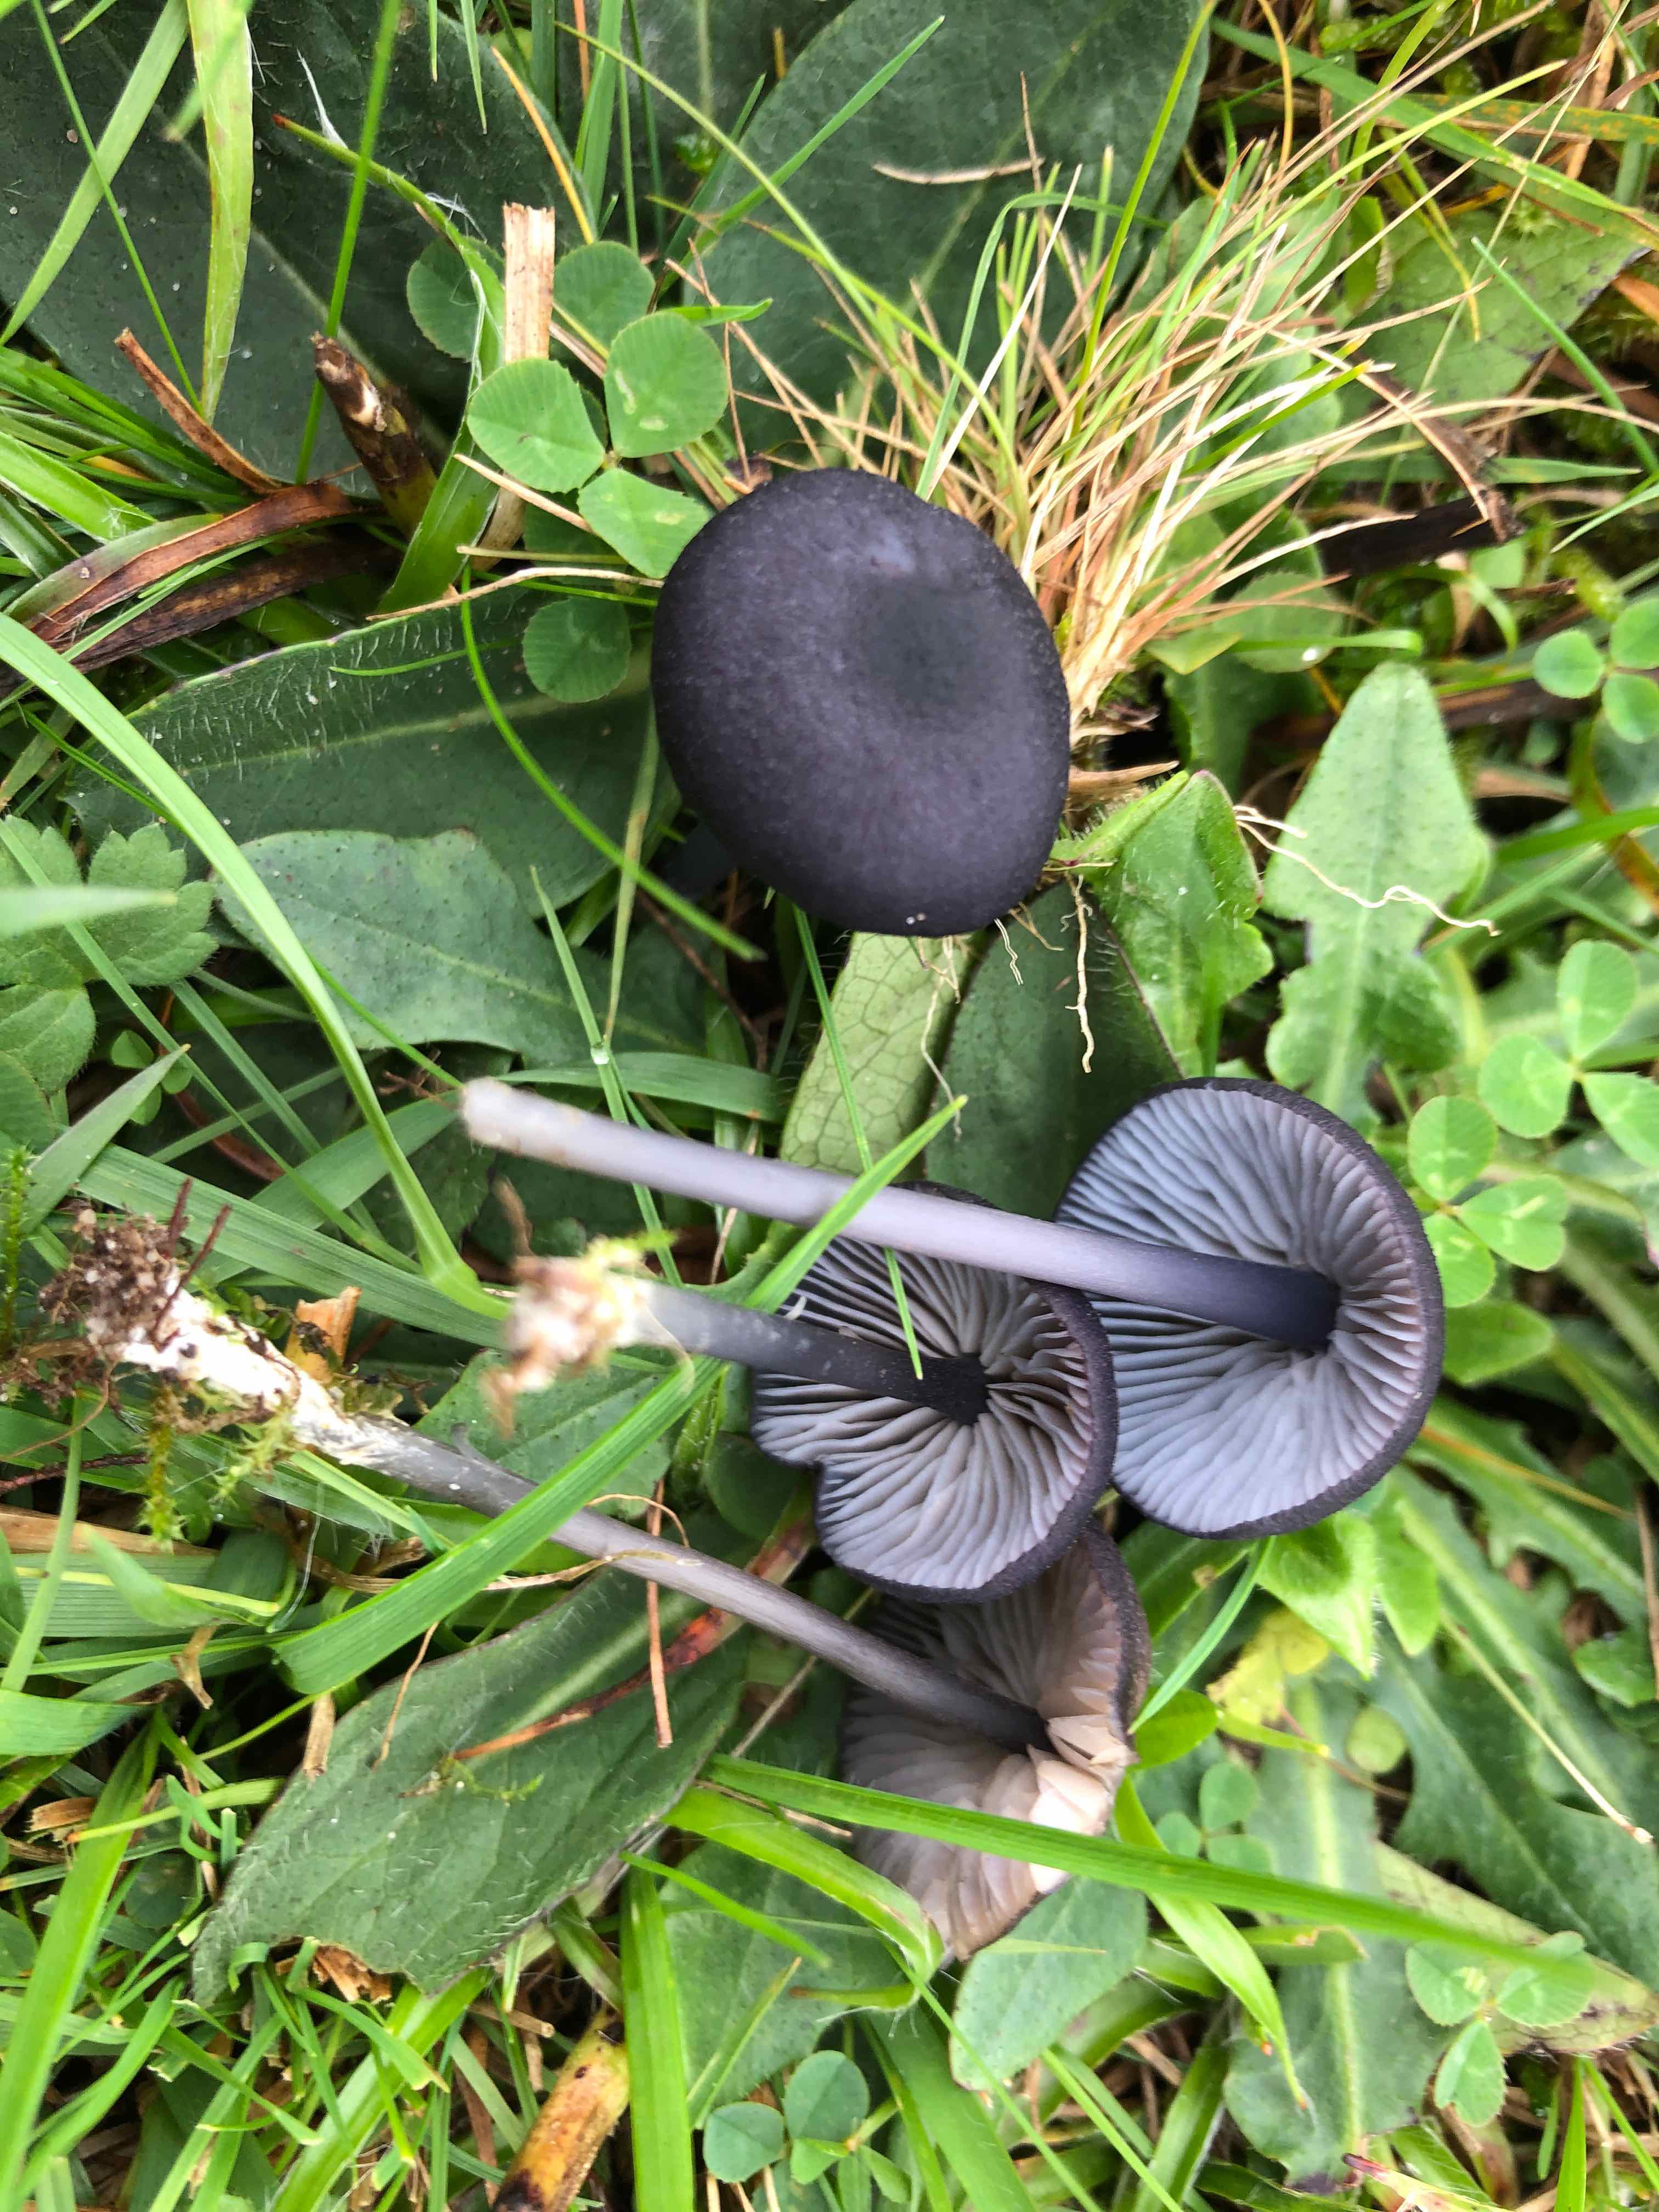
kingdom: Fungi
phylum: Basidiomycota
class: Agaricomycetes
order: Agaricales
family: Entolomataceae
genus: Entoloma
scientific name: Entoloma chalybeum
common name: blåbladet rødblad
